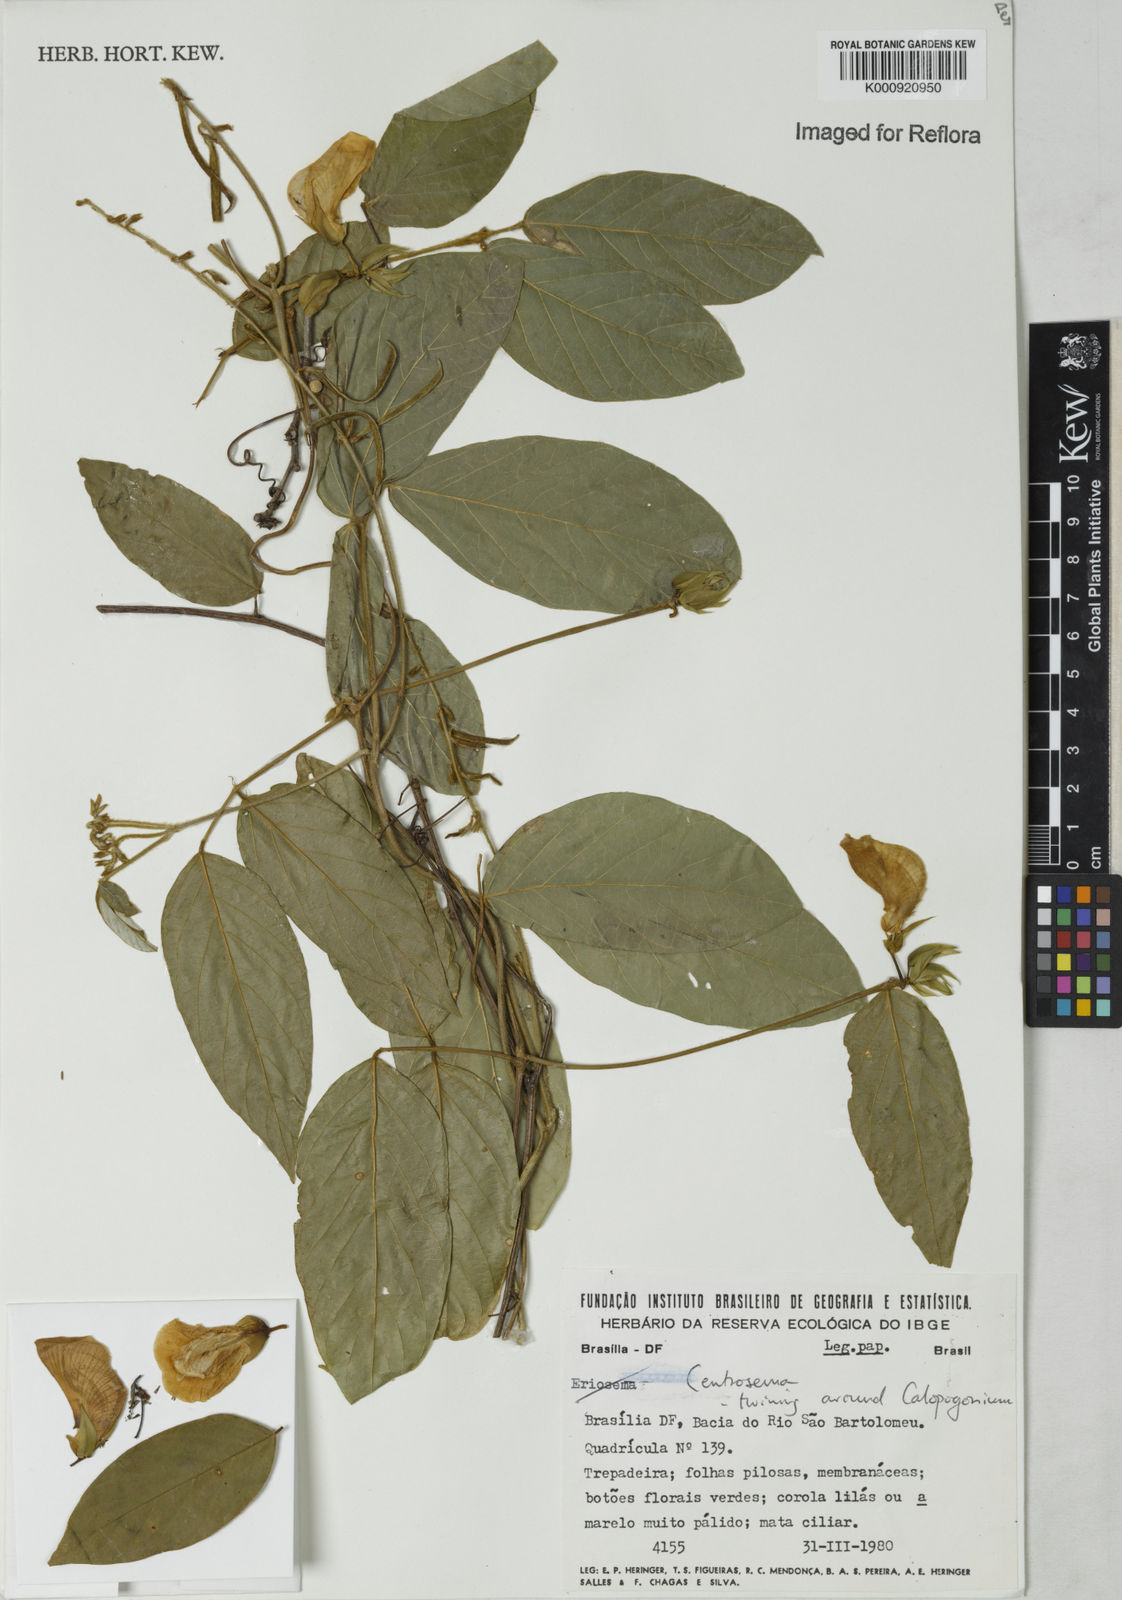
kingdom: Plantae
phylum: Tracheophyta
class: Magnoliopsida
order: Fabales
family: Fabaceae
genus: Centrosema
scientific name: Centrosema
